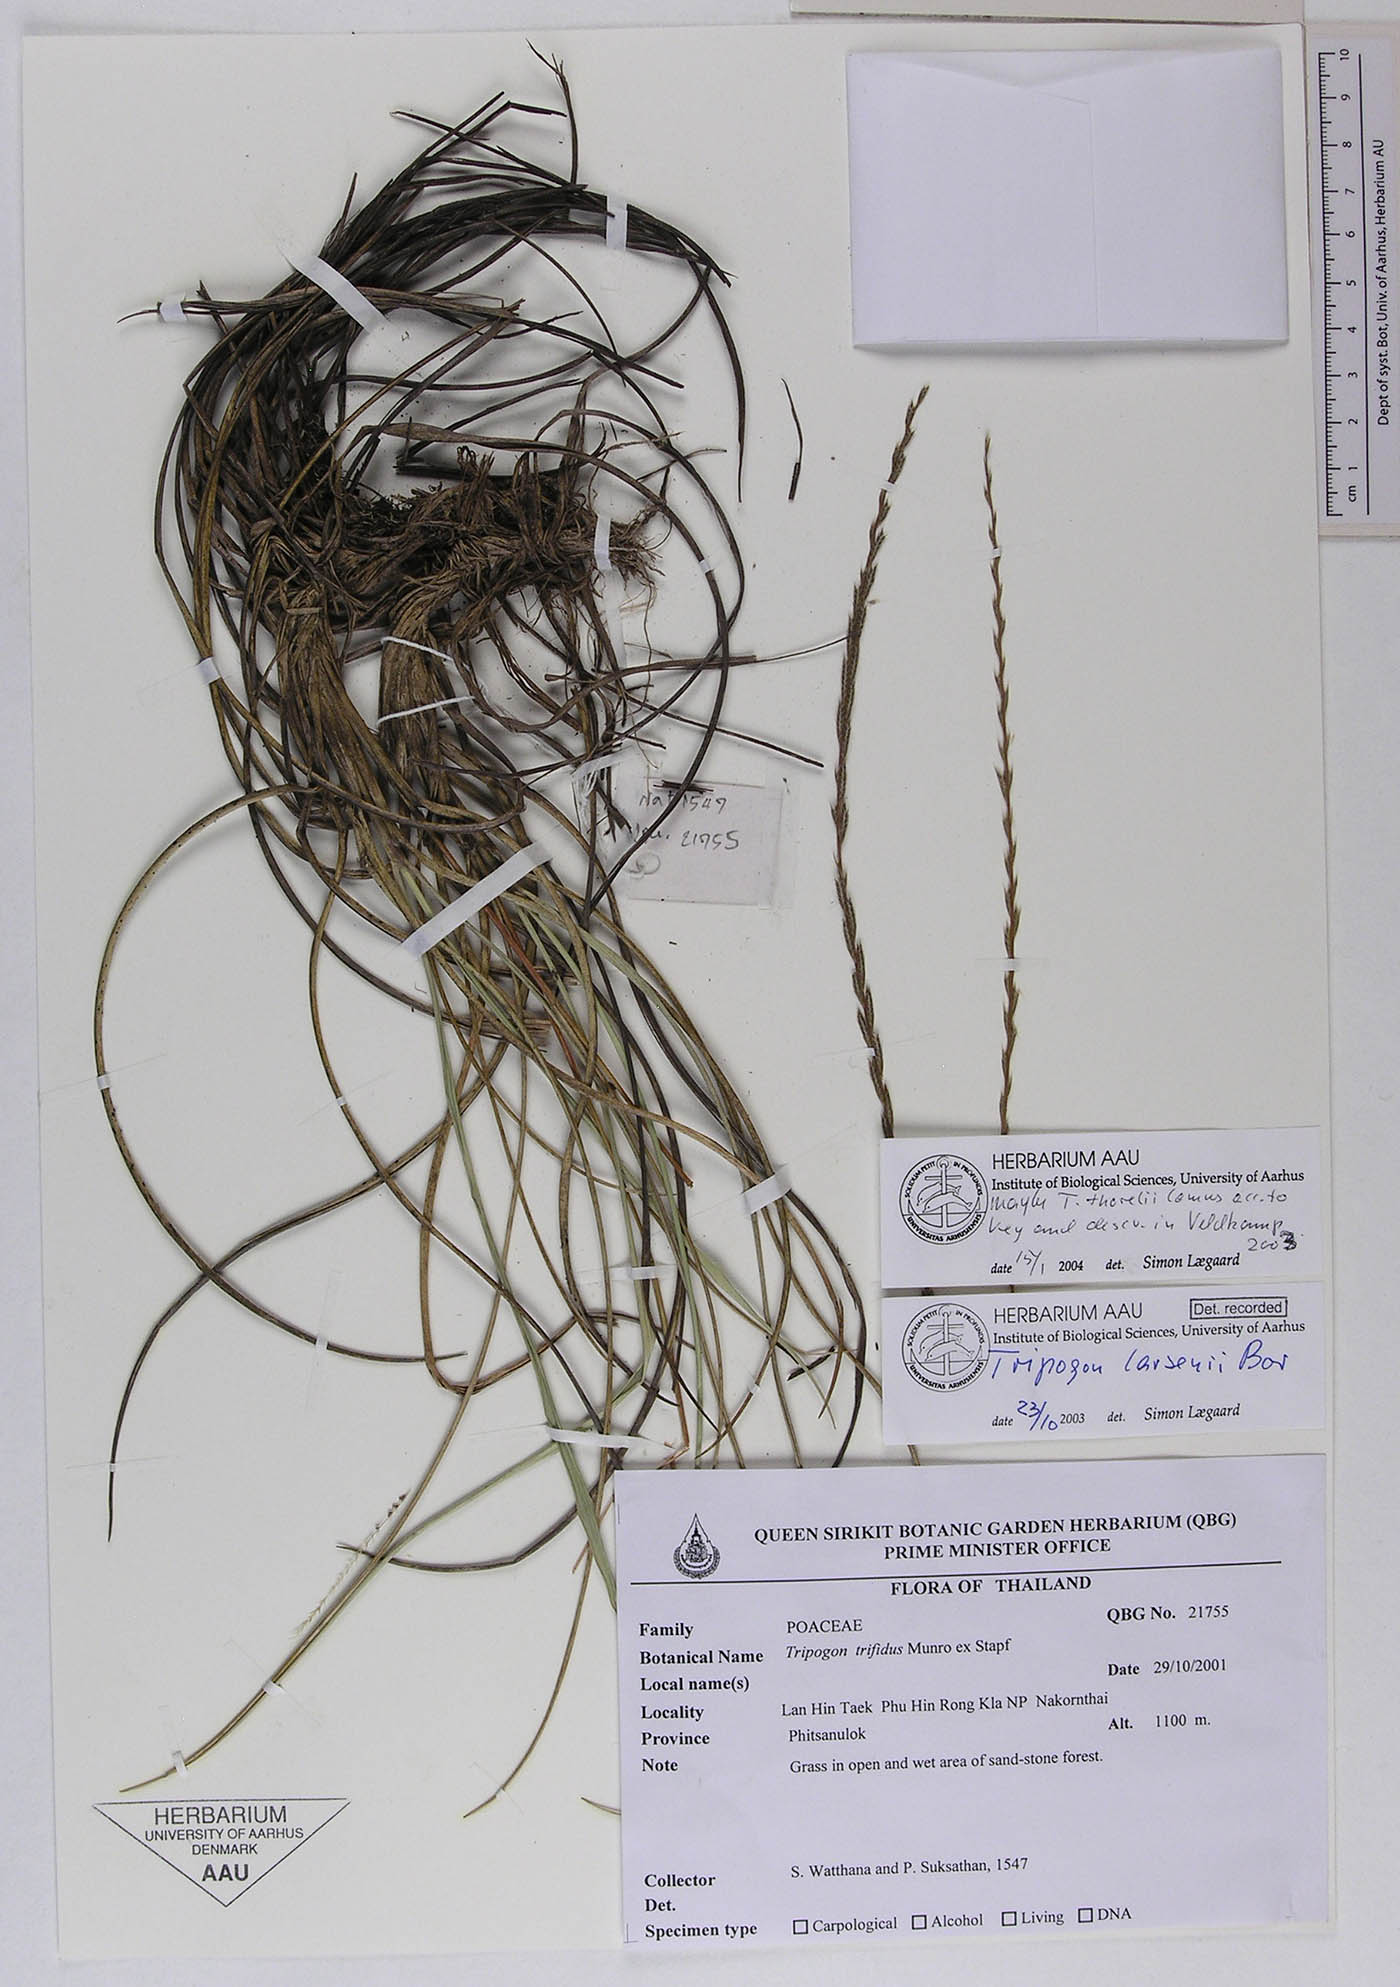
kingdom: Plantae
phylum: Tracheophyta
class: Liliopsida
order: Poales
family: Poaceae
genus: Tripogon
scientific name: Tripogon larsenii
